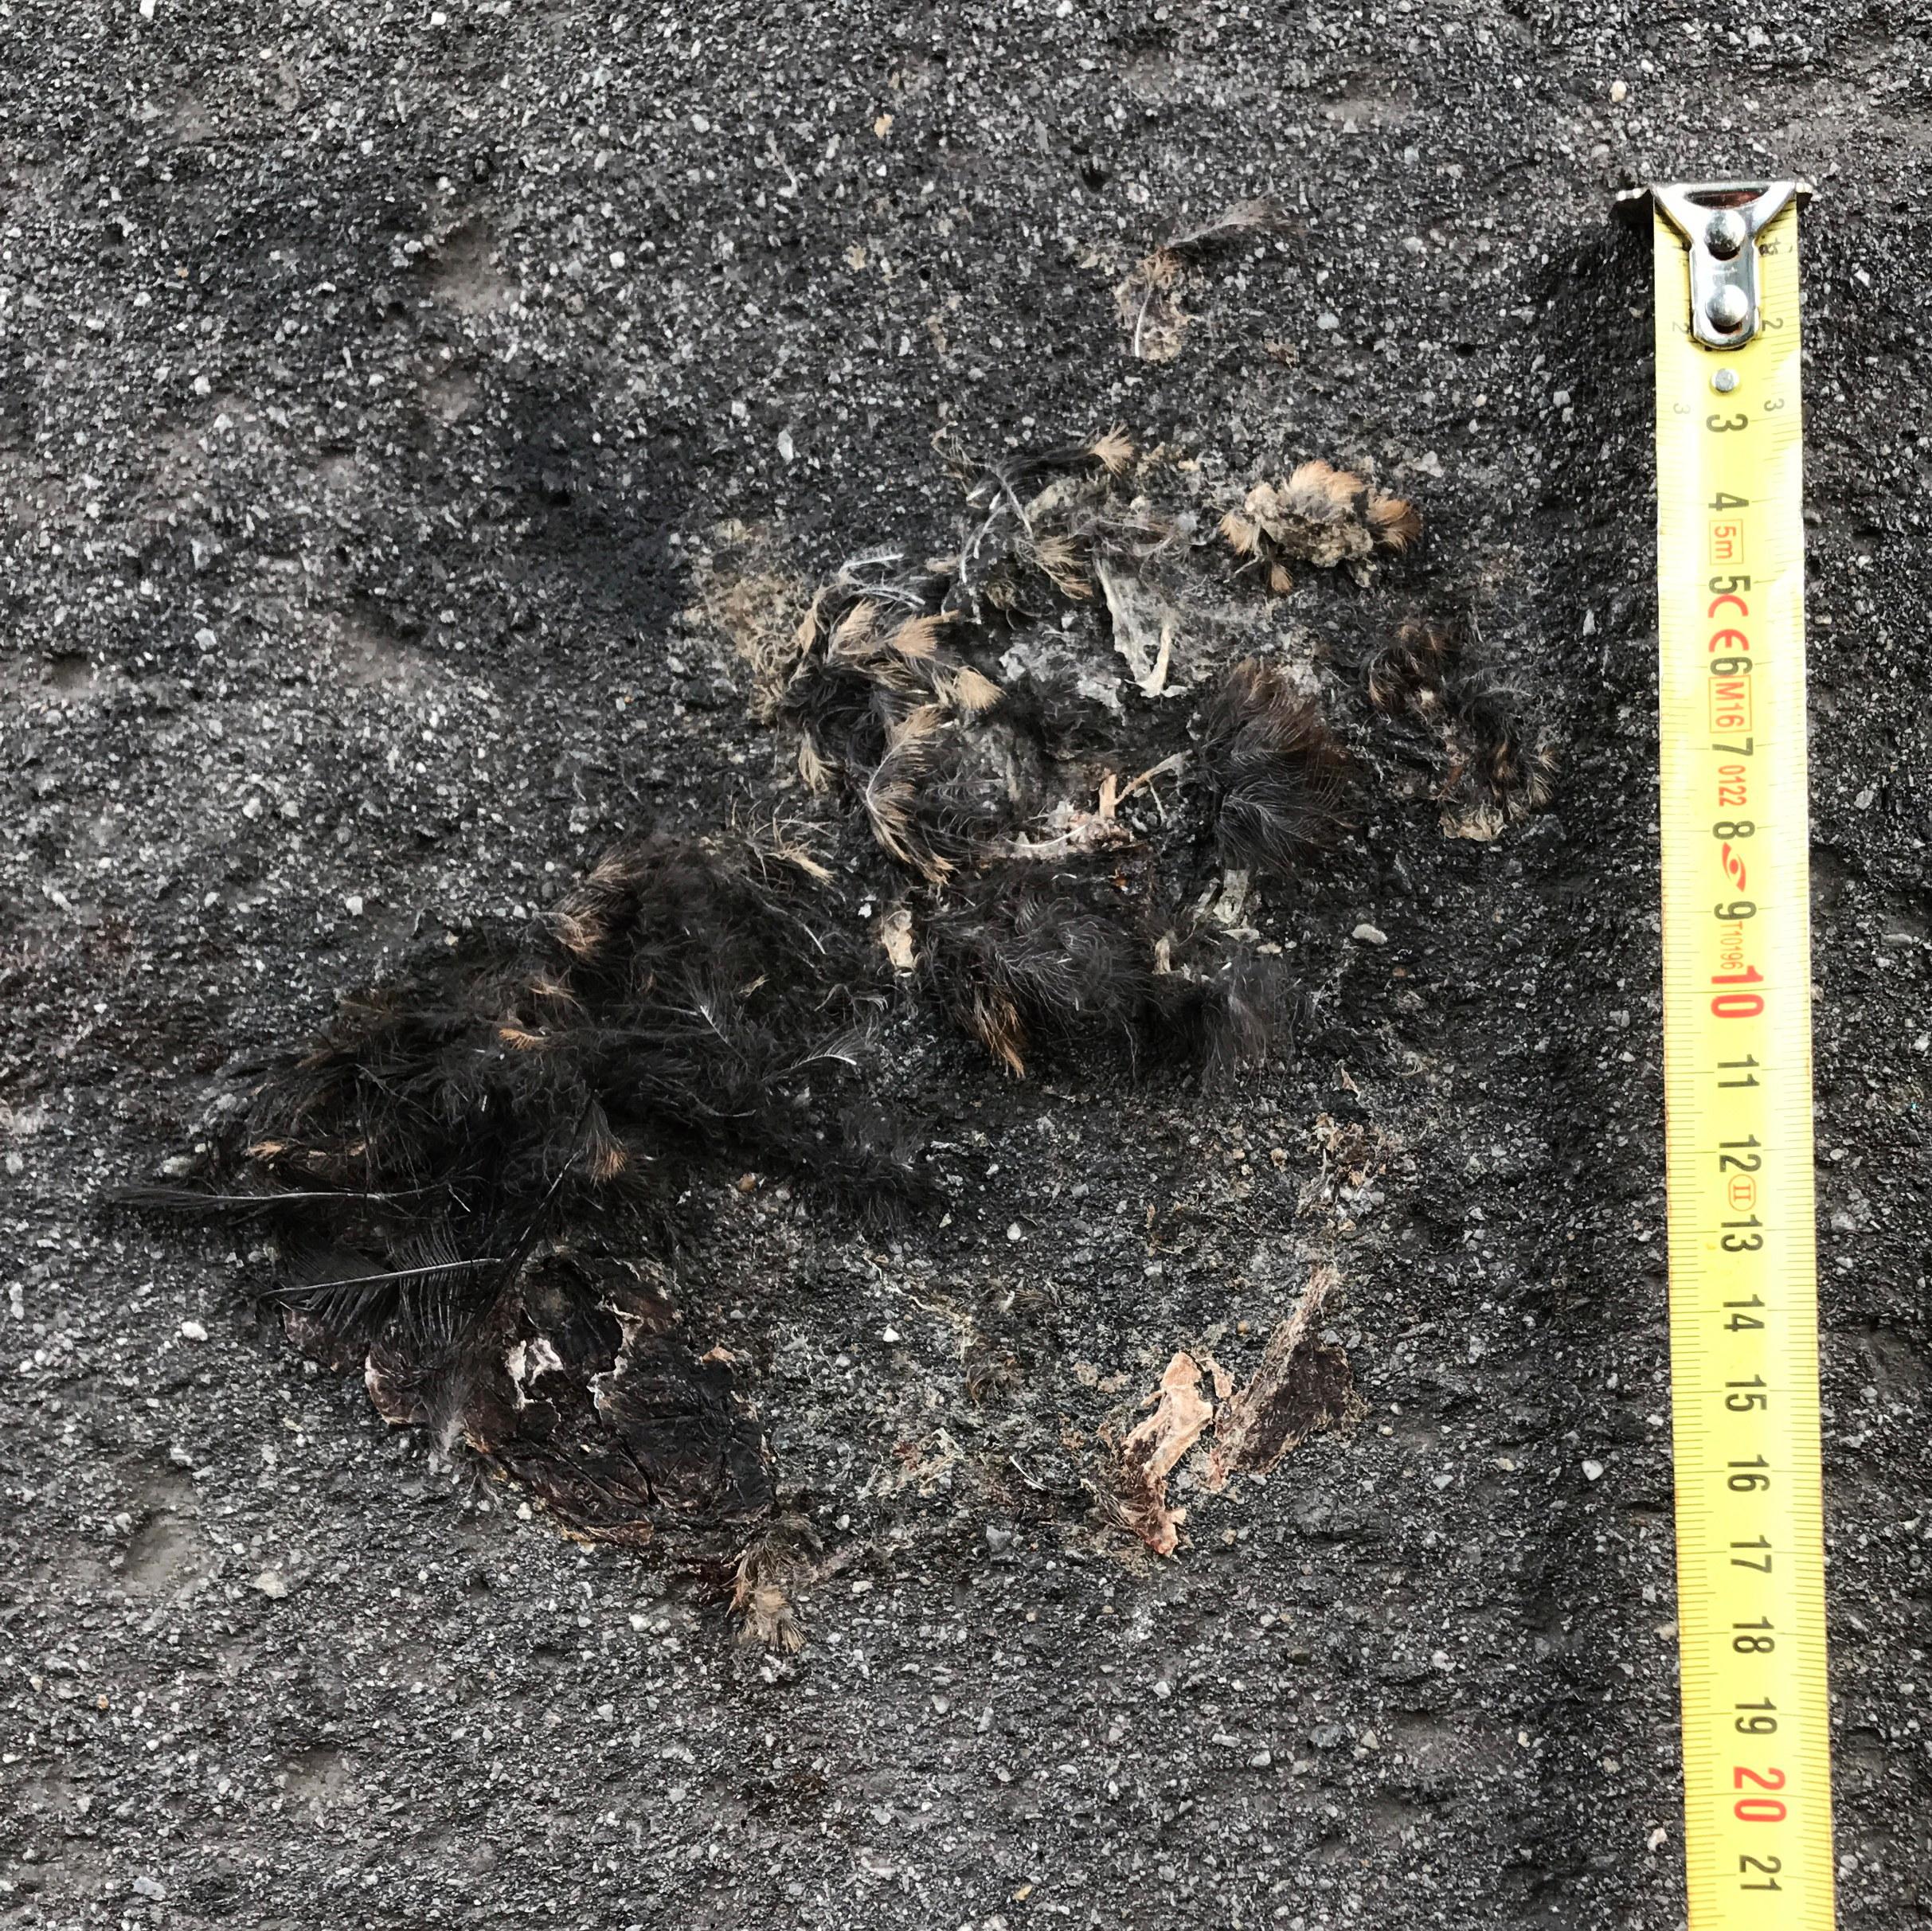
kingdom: Animalia
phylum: Chordata
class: Aves
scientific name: Aves
